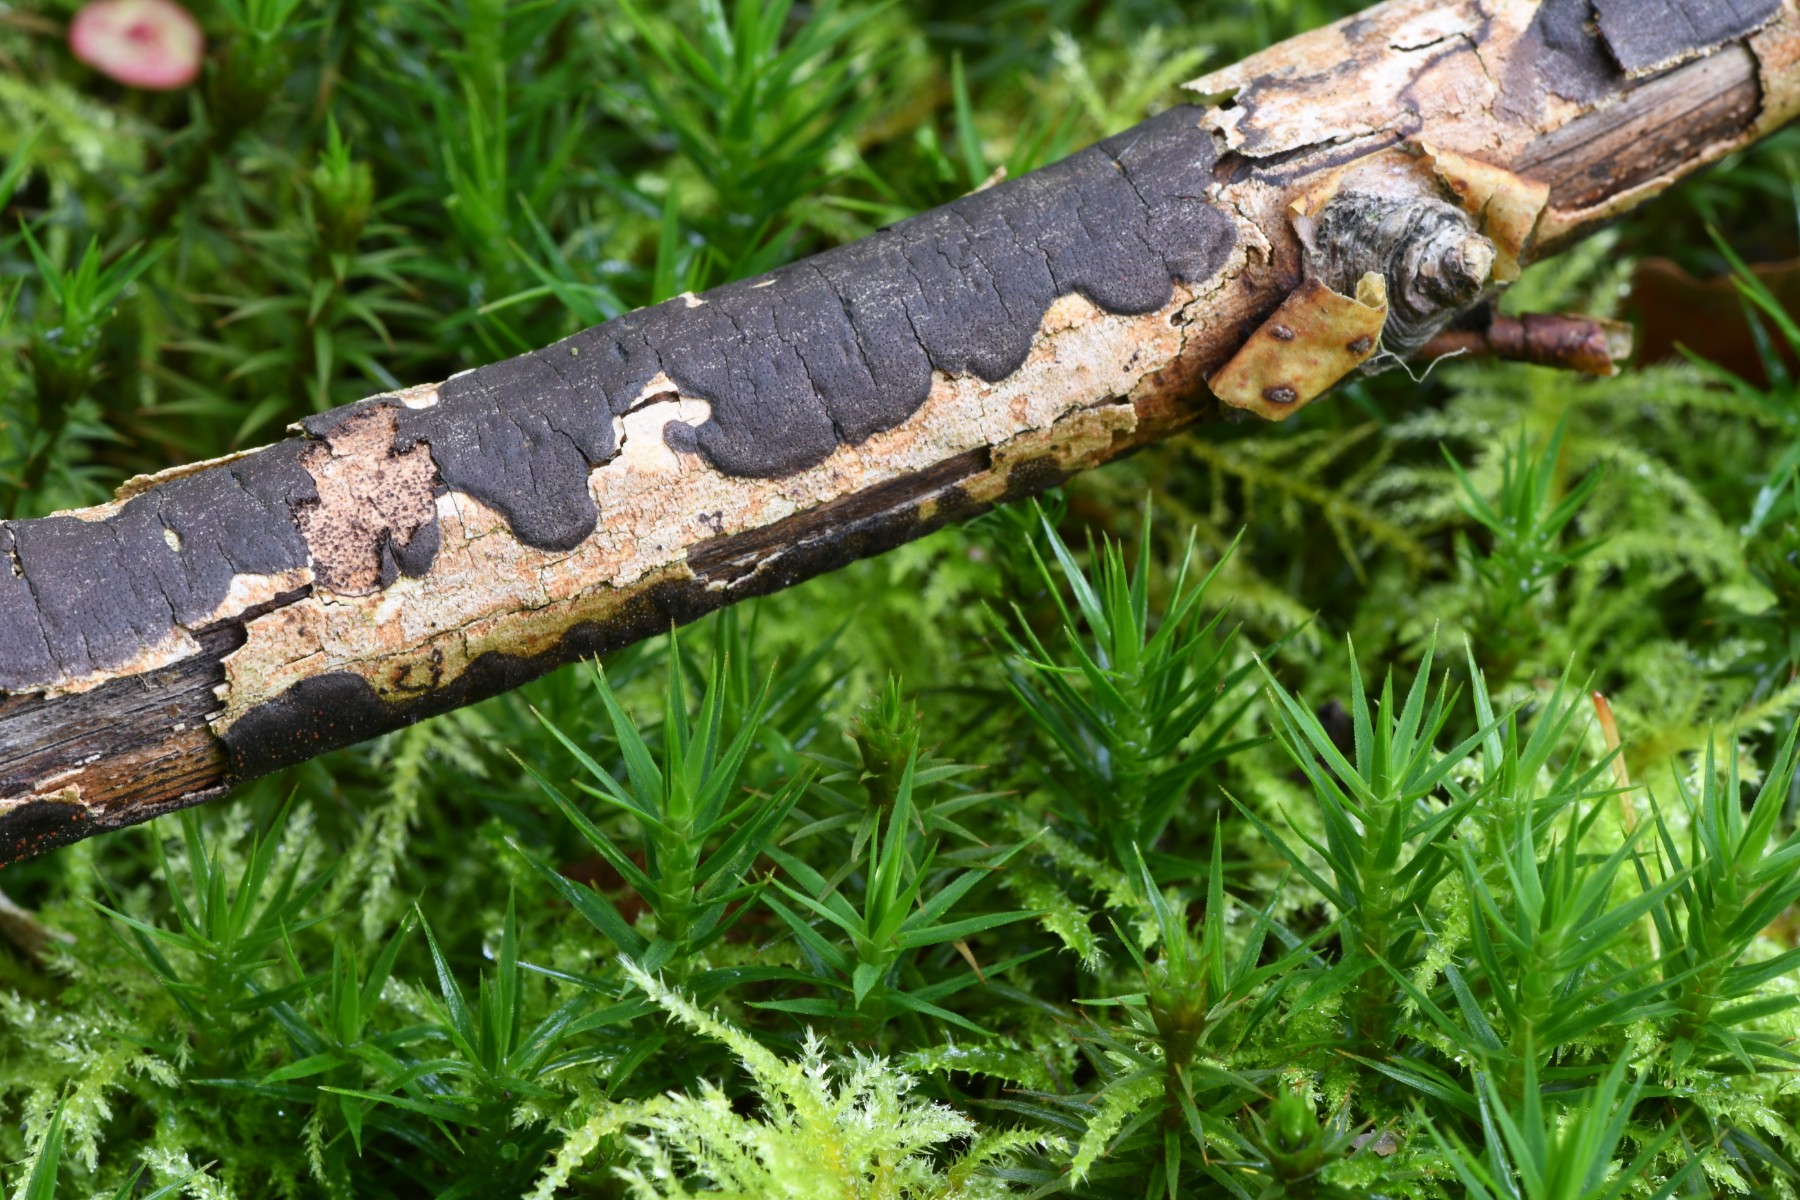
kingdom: Fungi
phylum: Ascomycota
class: Sordariomycetes
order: Xylariales
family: Diatrypaceae
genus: Diatrype
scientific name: Diatrype decorticata
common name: barksprænger-kulskorpe
